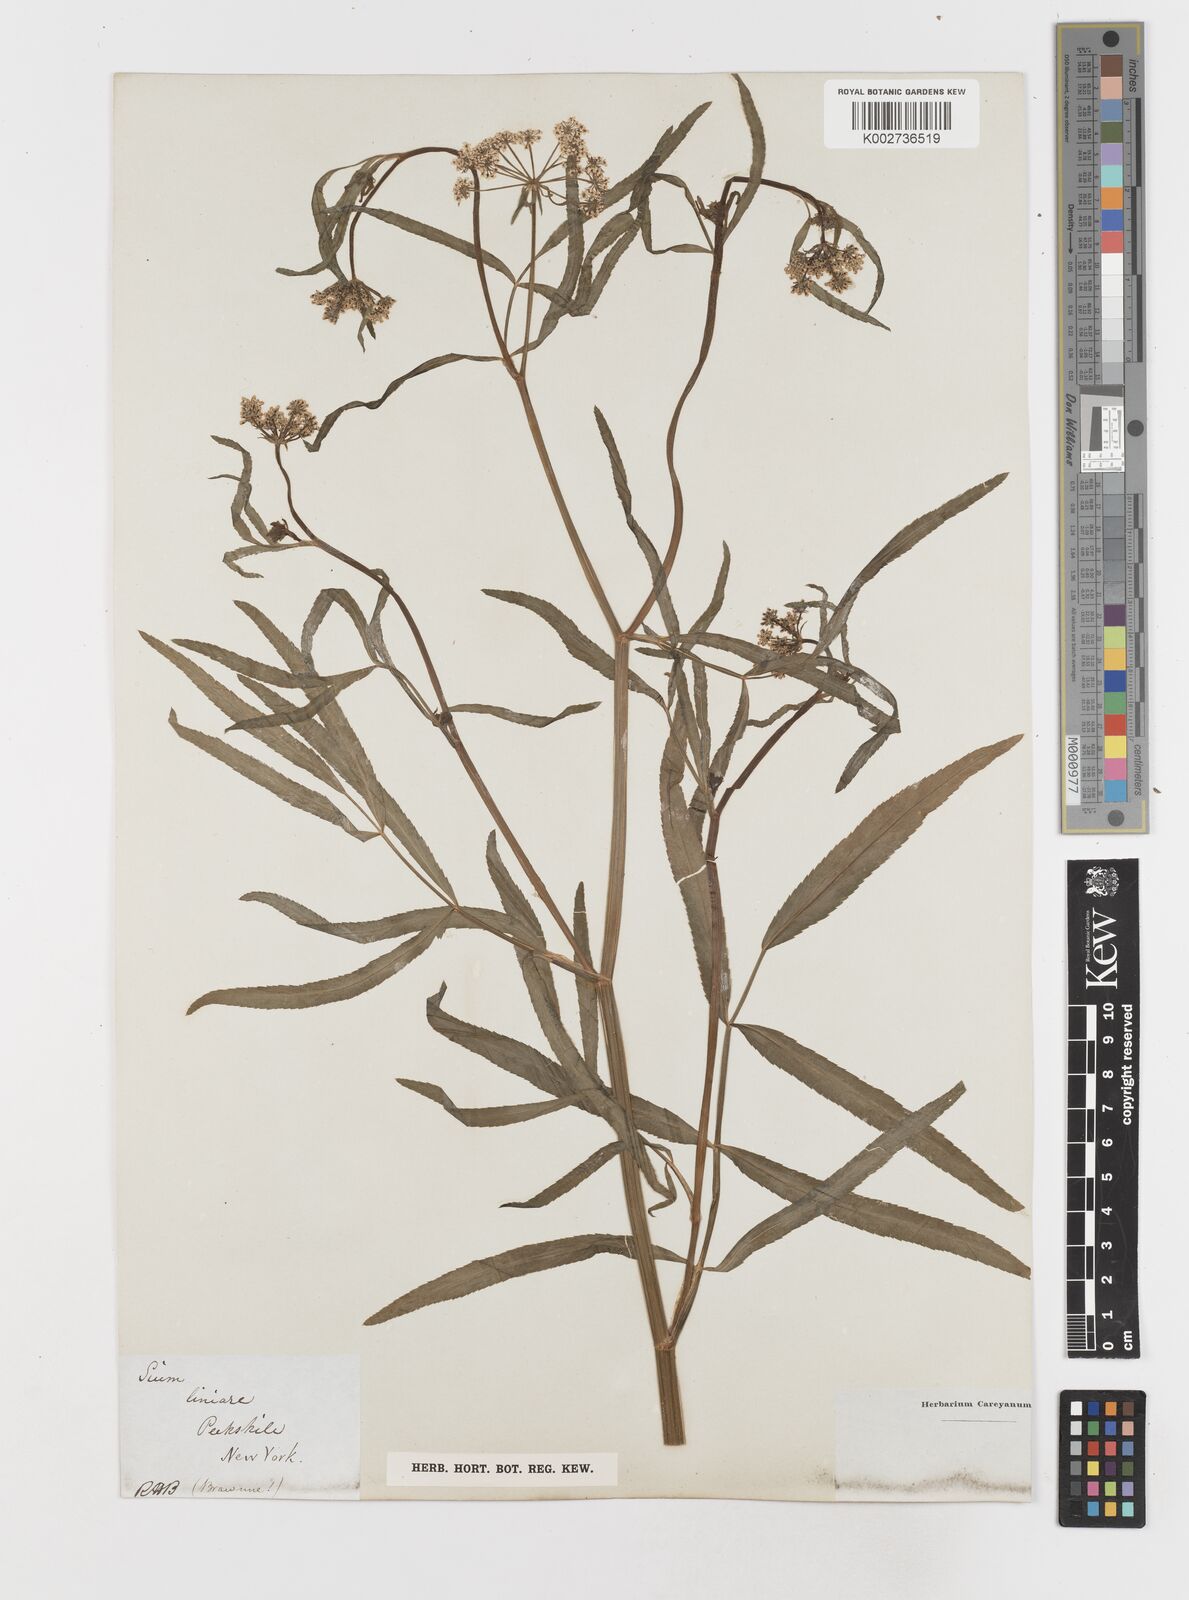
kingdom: Plantae
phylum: Tracheophyta
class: Magnoliopsida
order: Apiales
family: Apiaceae
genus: Sium
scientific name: Sium suave
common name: Hemlock water-parsnip
